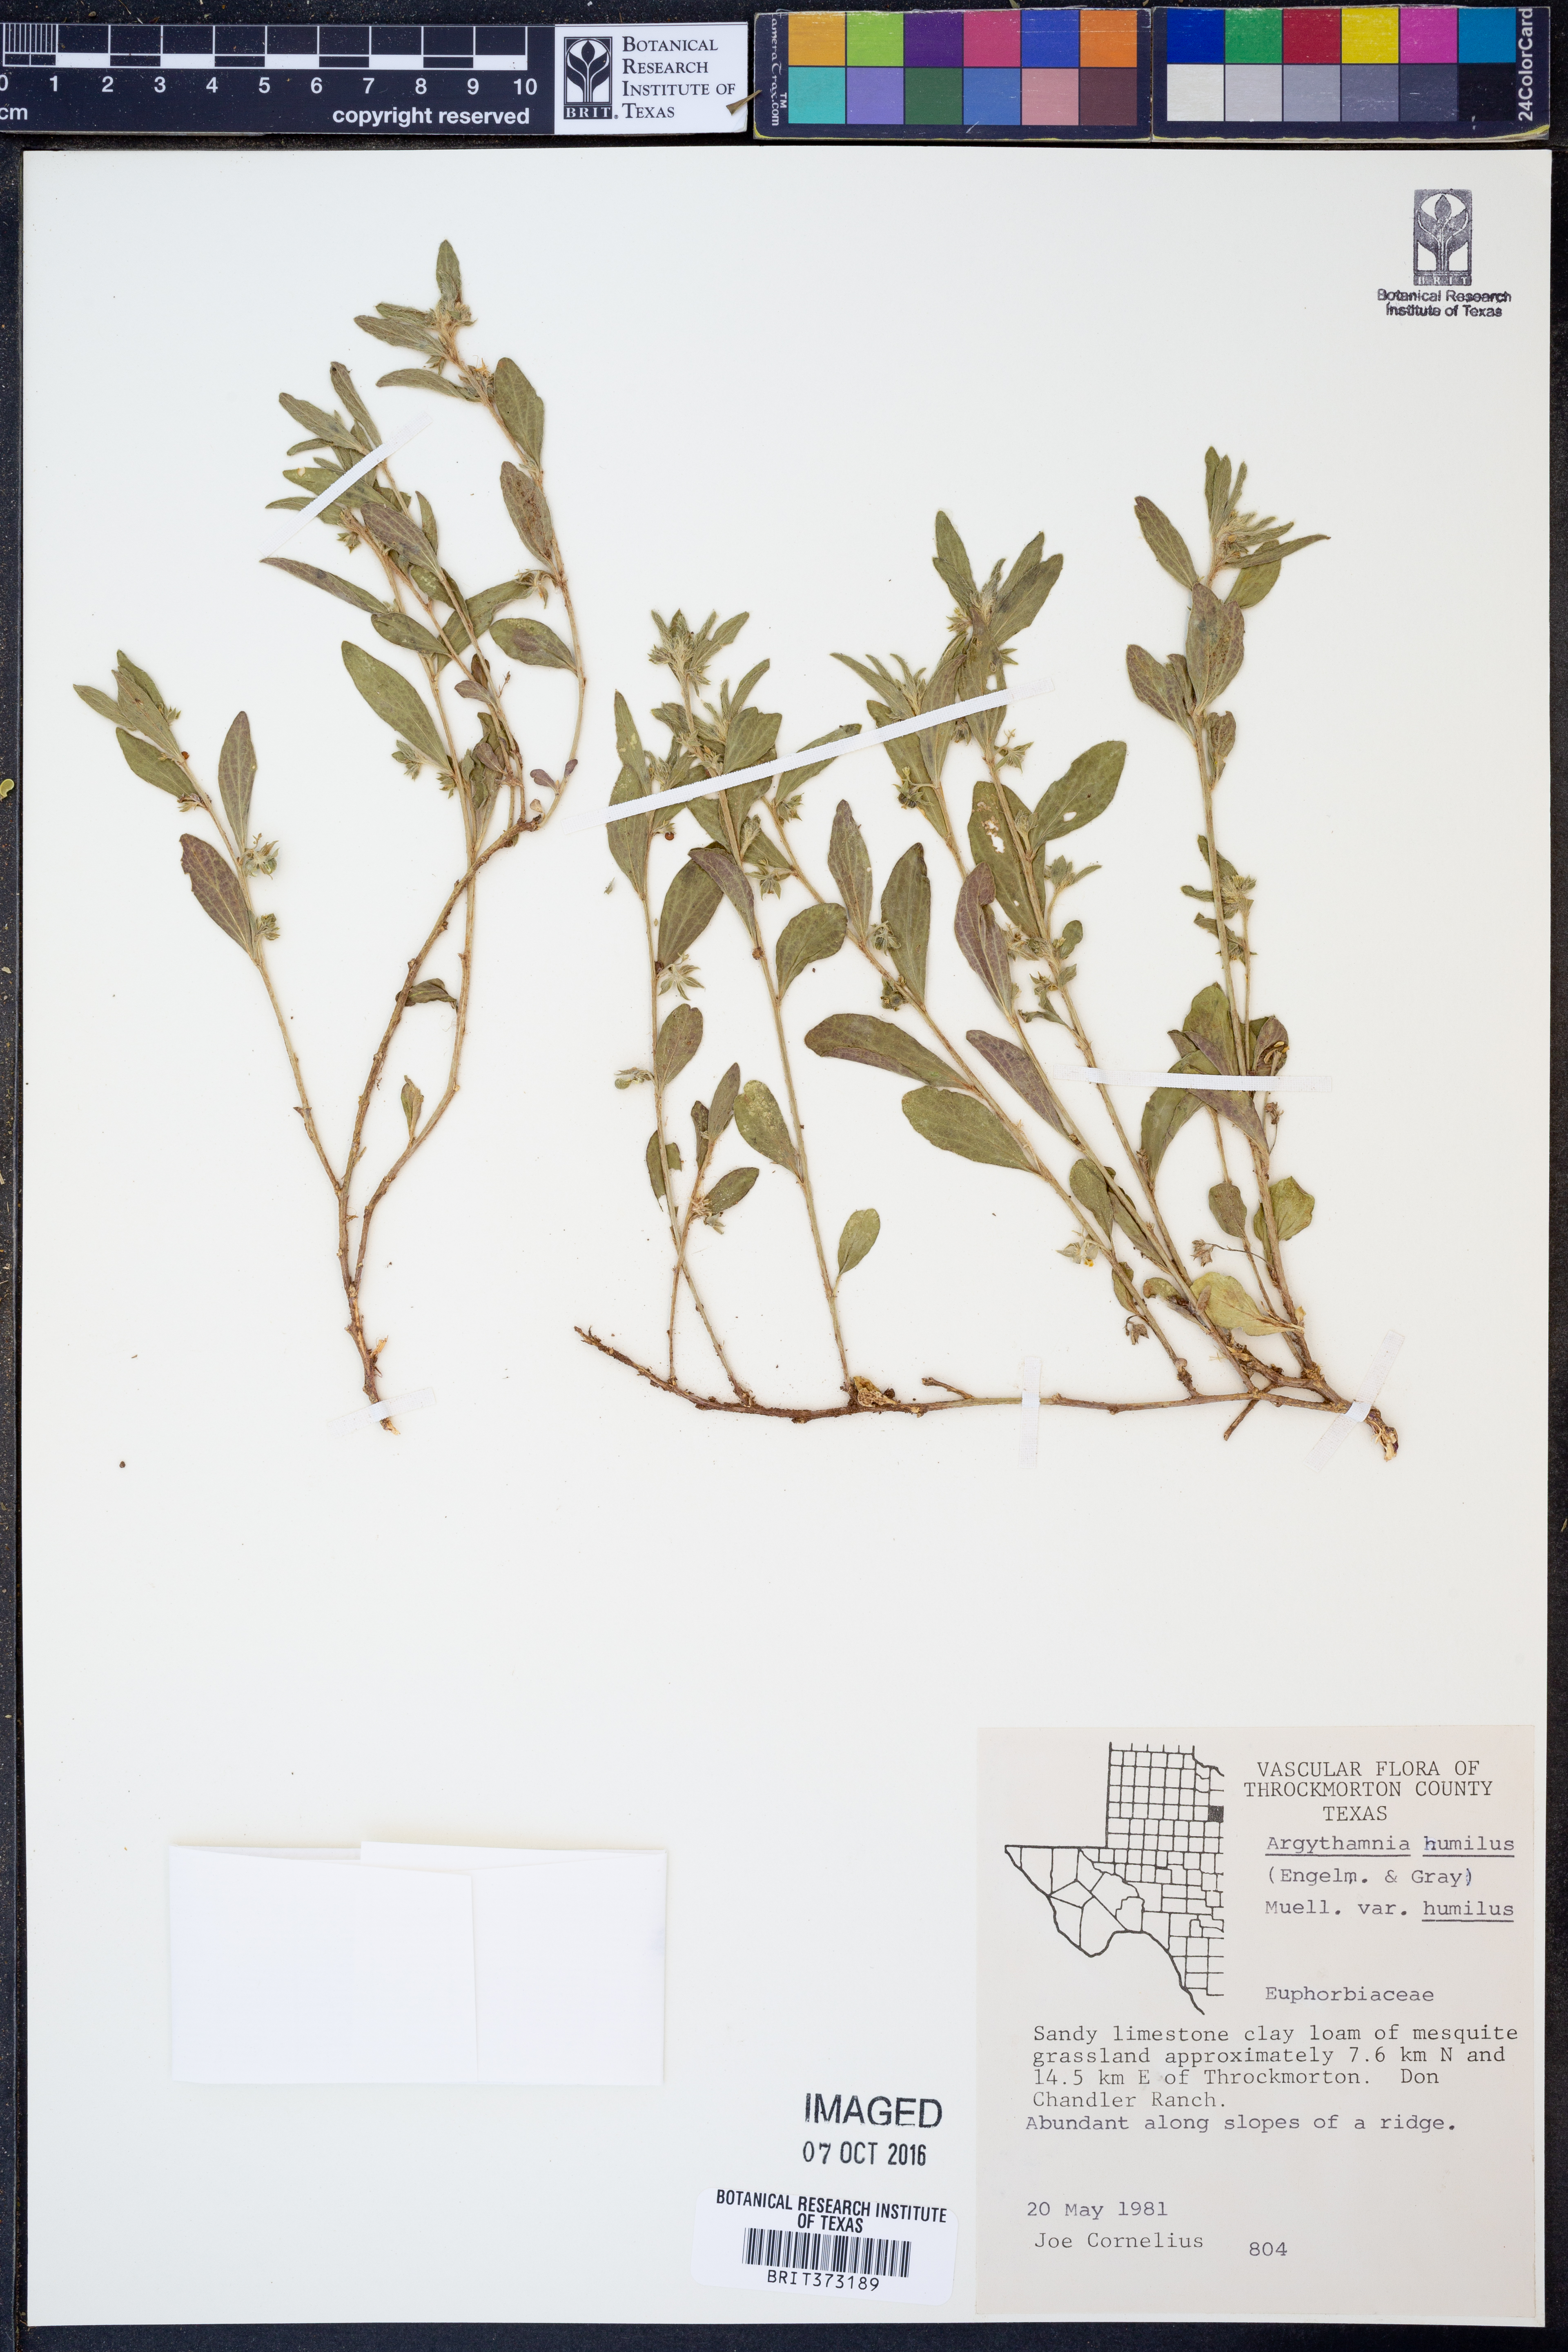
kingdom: Plantae
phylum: Tracheophyta
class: Magnoliopsida
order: Malpighiales
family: Euphorbiaceae
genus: Ditaxis
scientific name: Ditaxis humilis
